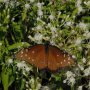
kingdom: Animalia
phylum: Arthropoda
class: Insecta
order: Lepidoptera
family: Nymphalidae
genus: Danaus
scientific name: Danaus gilippus
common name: Queen
